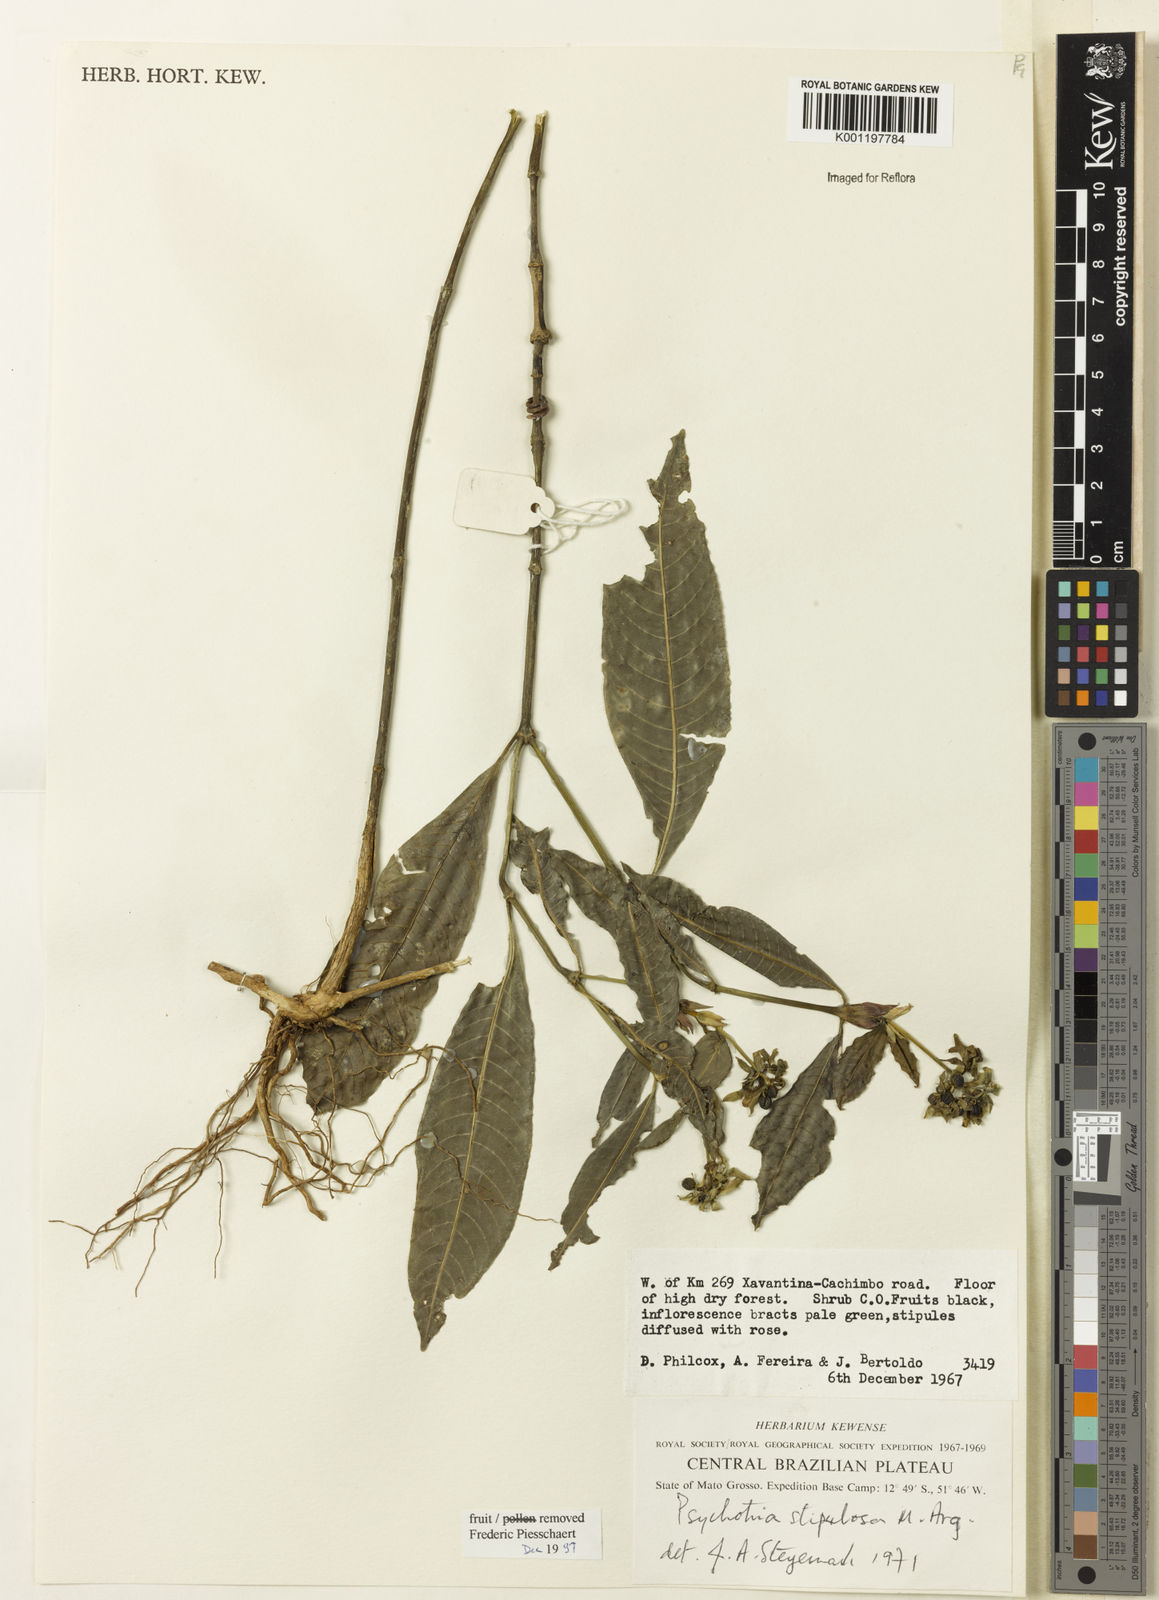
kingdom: Plantae
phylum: Tracheophyta
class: Magnoliopsida
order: Gentianales
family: Rubiaceae
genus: Psychotria
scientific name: Psychotria
